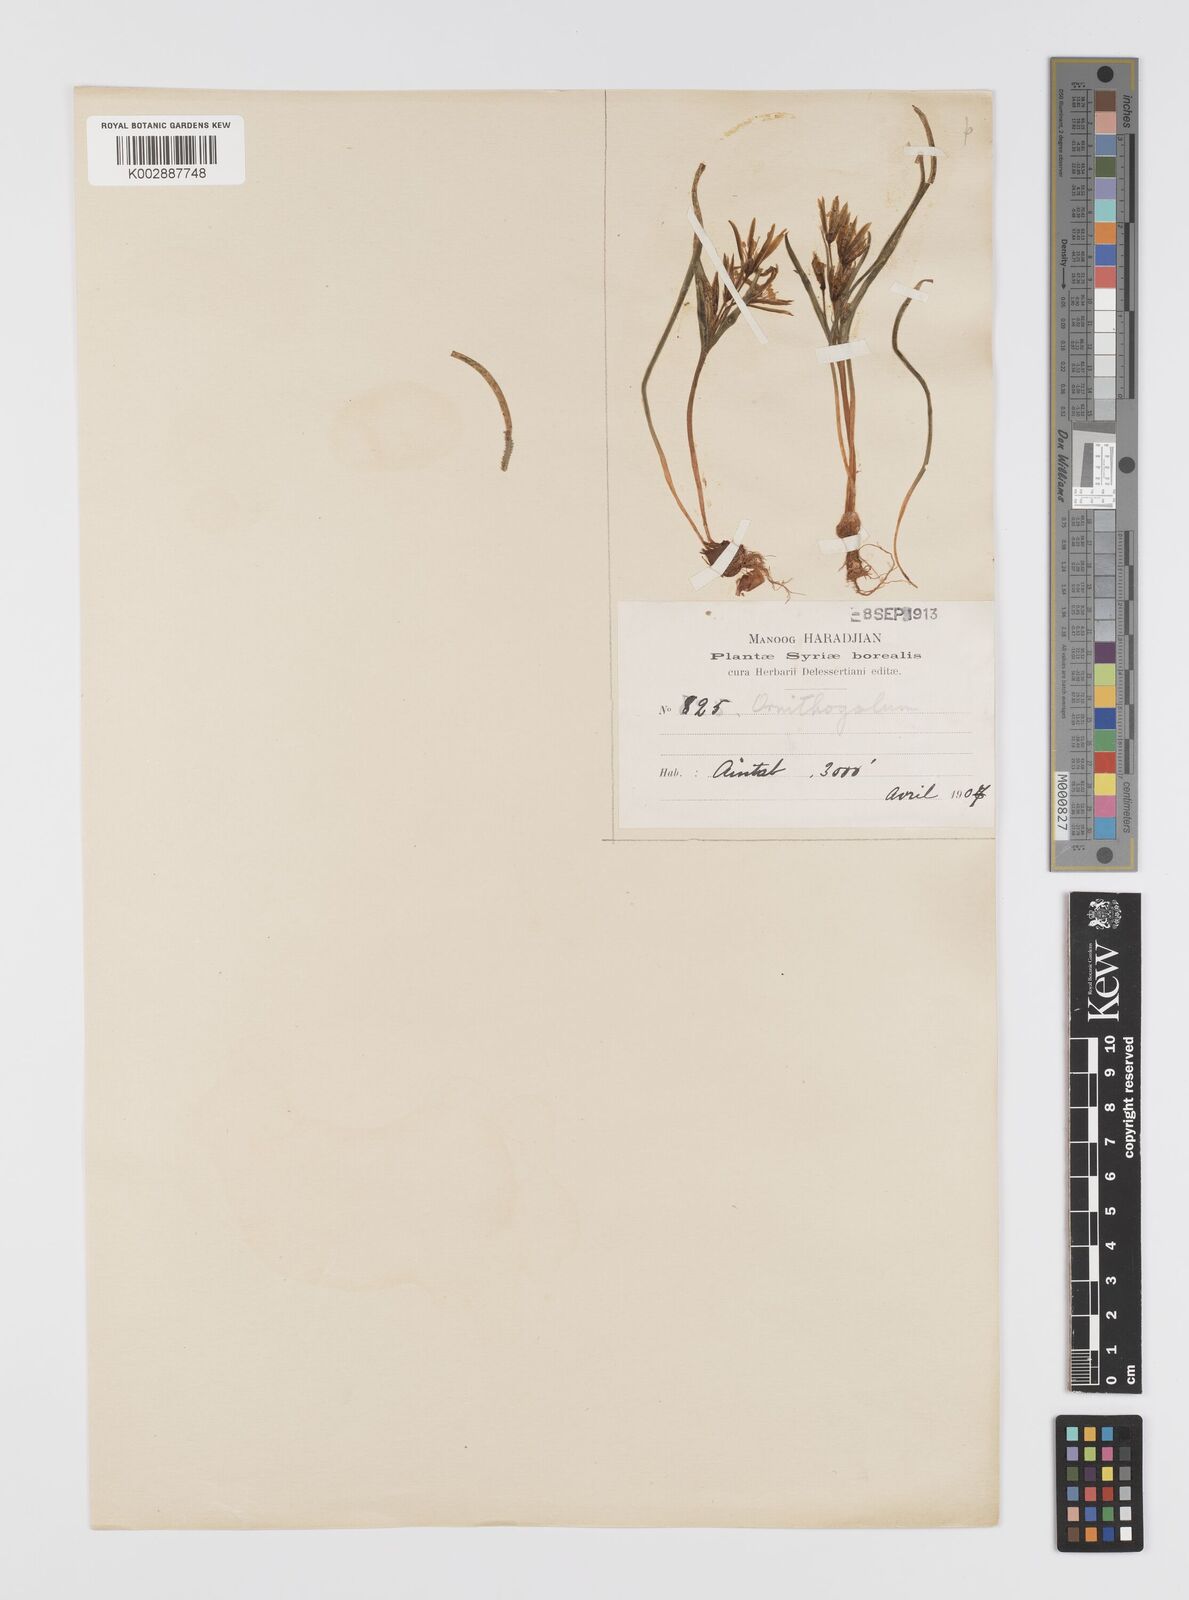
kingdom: Plantae
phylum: Tracheophyta
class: Liliopsida
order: Liliales
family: Liliaceae
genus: Gagea
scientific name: Gagea minima
